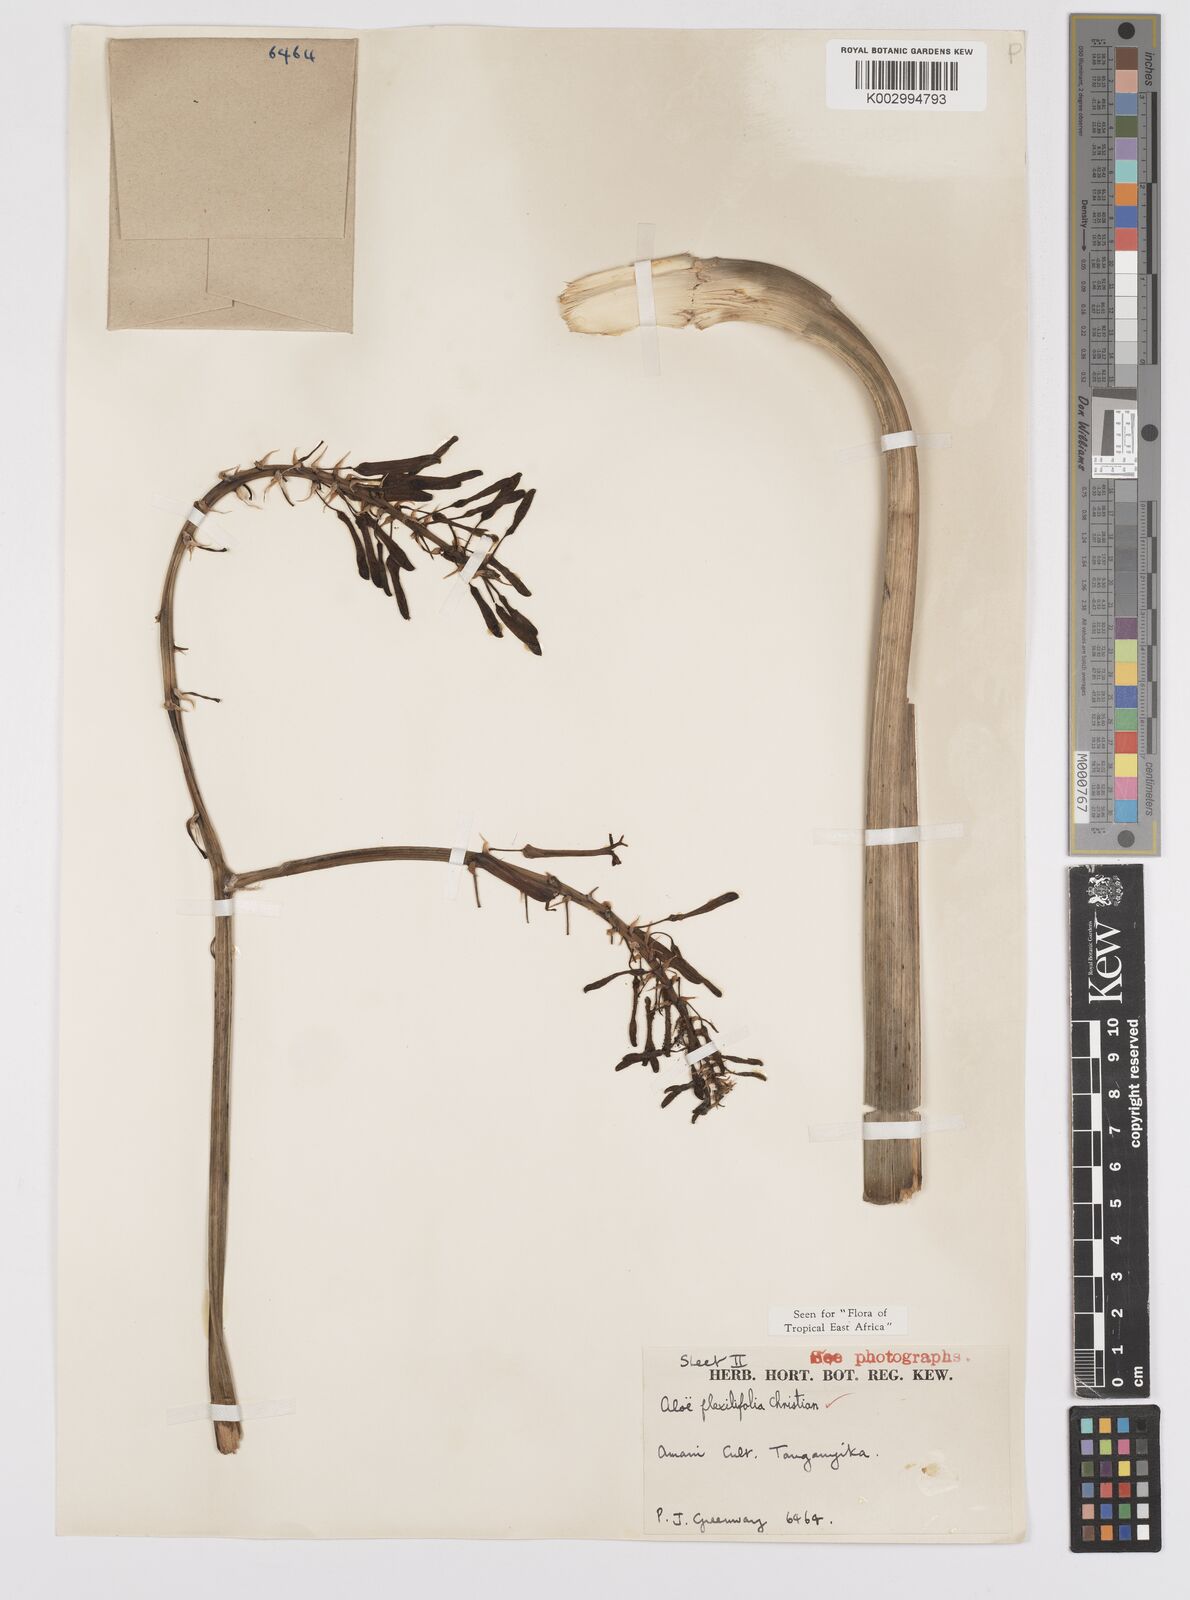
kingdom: Plantae
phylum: Tracheophyta
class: Liliopsida
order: Asparagales
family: Asphodelaceae
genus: Aloe
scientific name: Aloe flexilifolia
